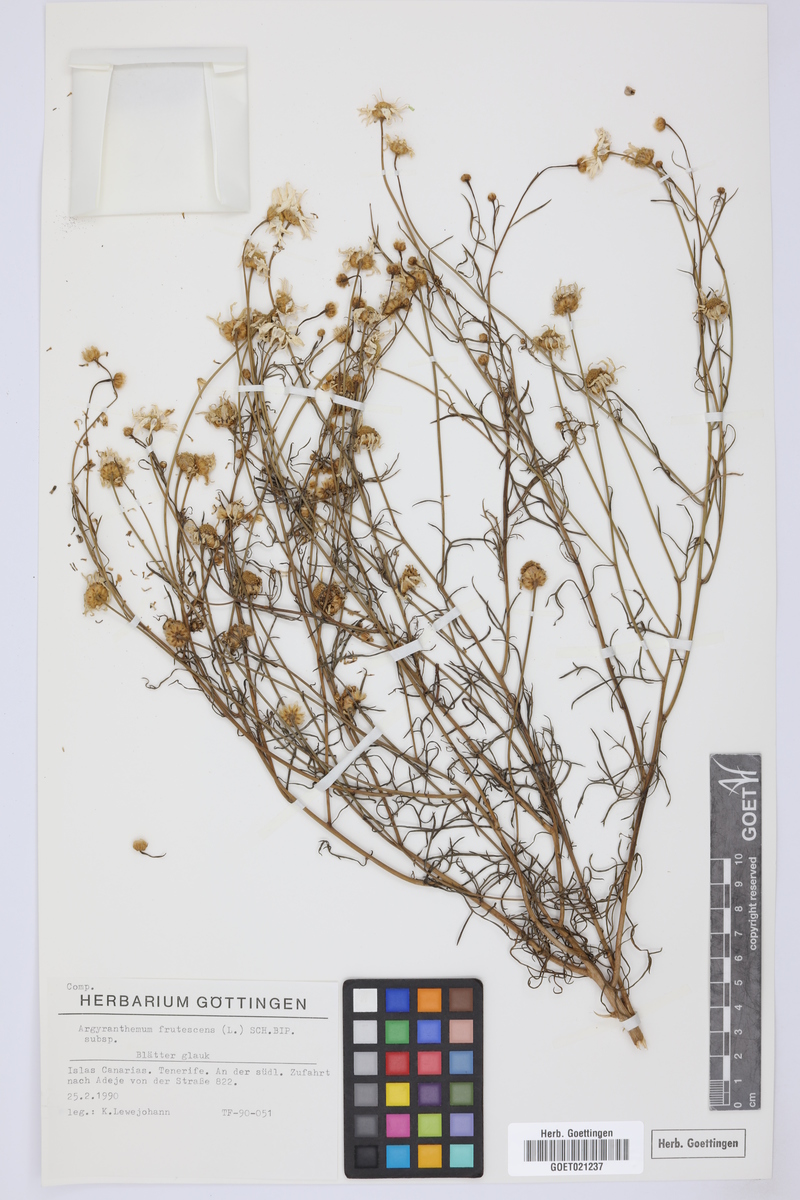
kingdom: Plantae
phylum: Tracheophyta
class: Magnoliopsida
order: Asterales
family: Asteraceae
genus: Argyranthemum
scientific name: Argyranthemum frutescens
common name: Paris daisy
